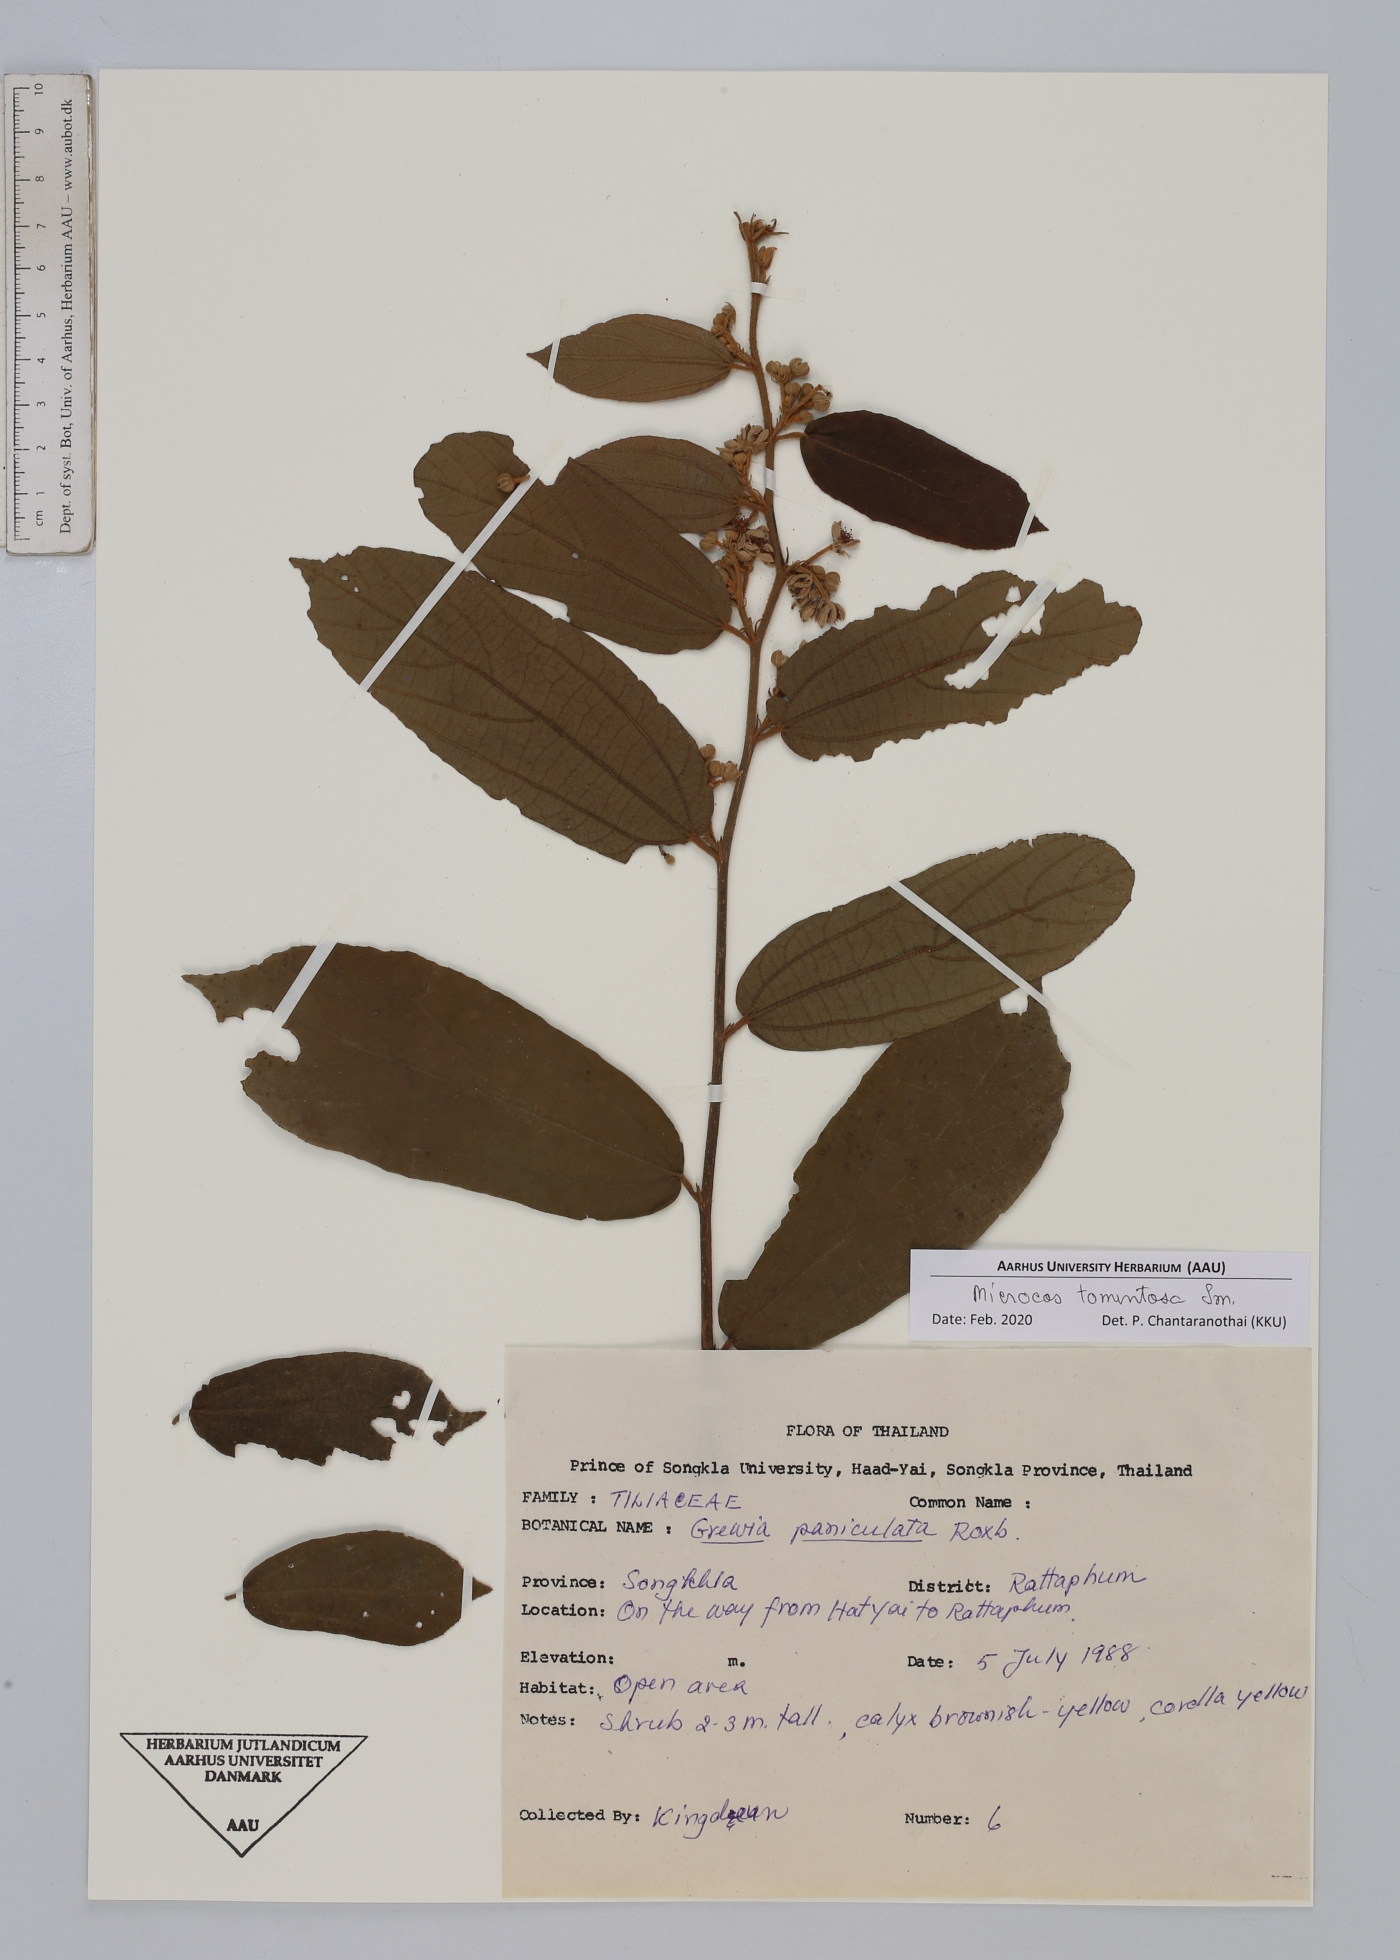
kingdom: Plantae
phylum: Tracheophyta
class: Magnoliopsida
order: Malvales
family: Malvaceae
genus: Microcos
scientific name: Microcos tomentosa
